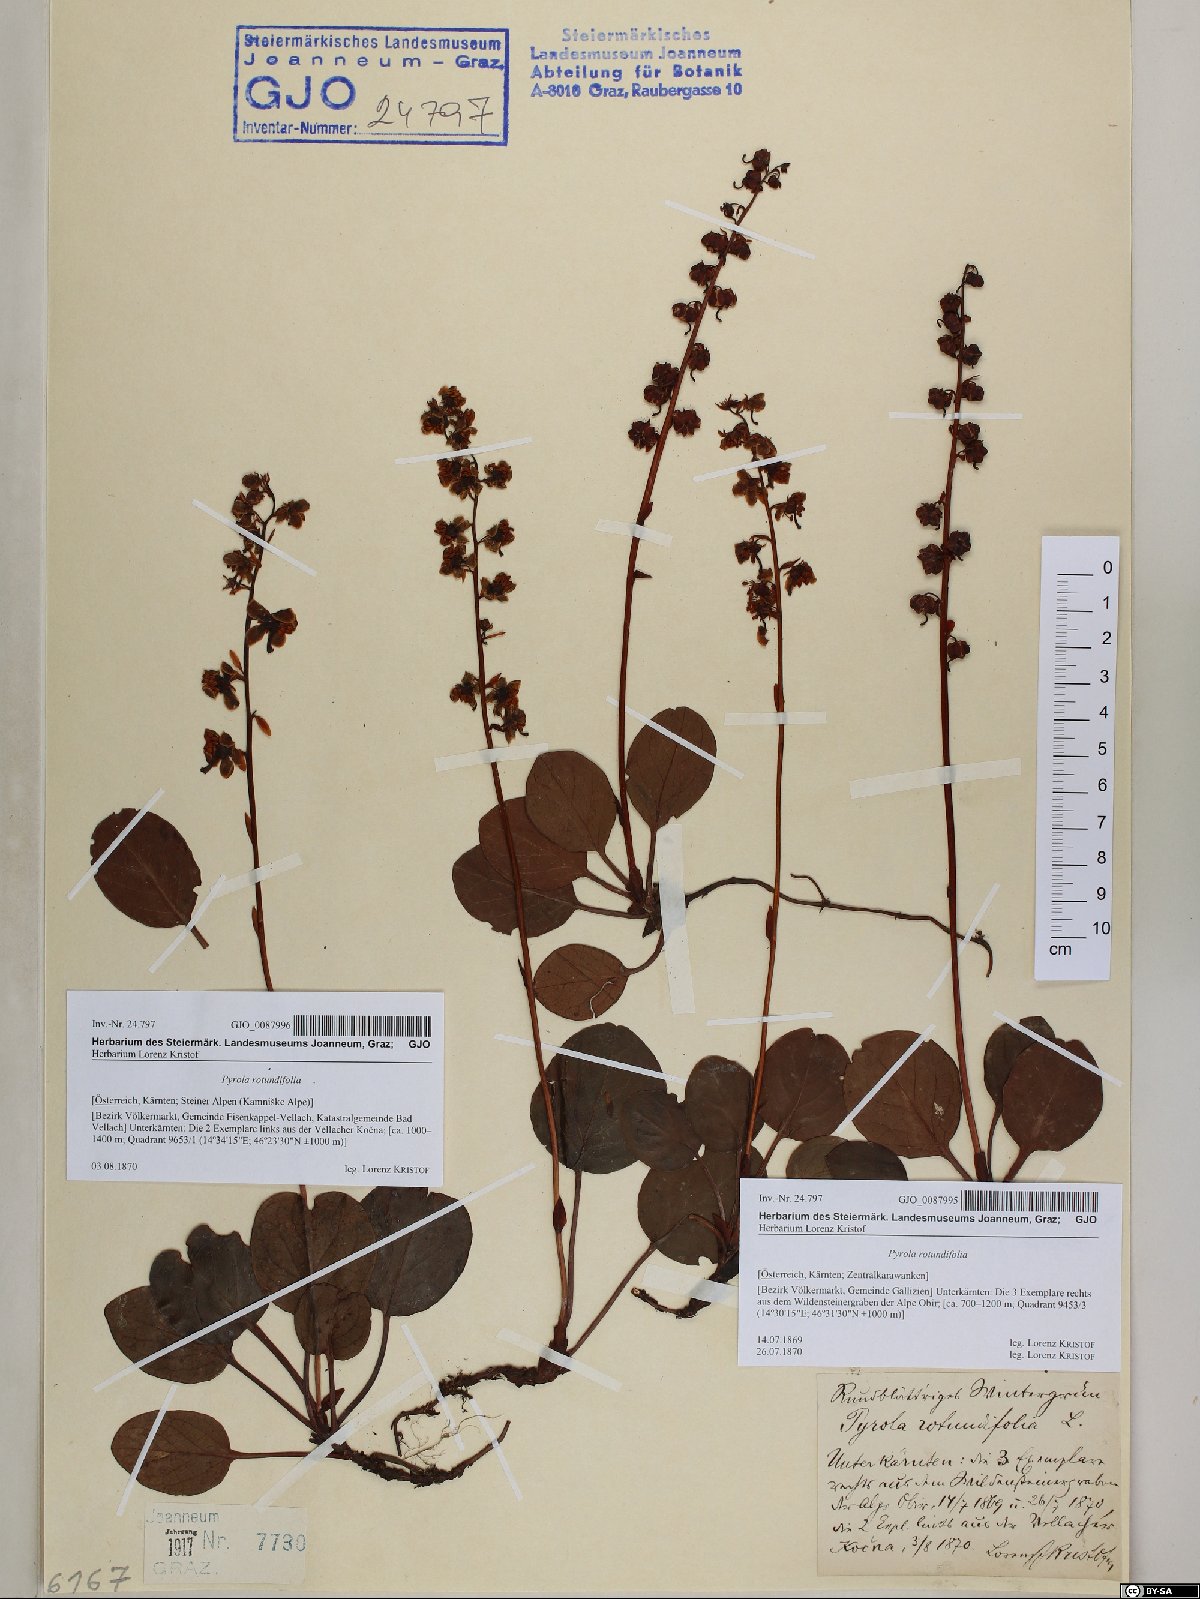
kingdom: Plantae
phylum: Tracheophyta
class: Magnoliopsida
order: Ericales
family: Ericaceae
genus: Pyrola
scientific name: Pyrola rotundifolia
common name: Round-leaved wintergreen
